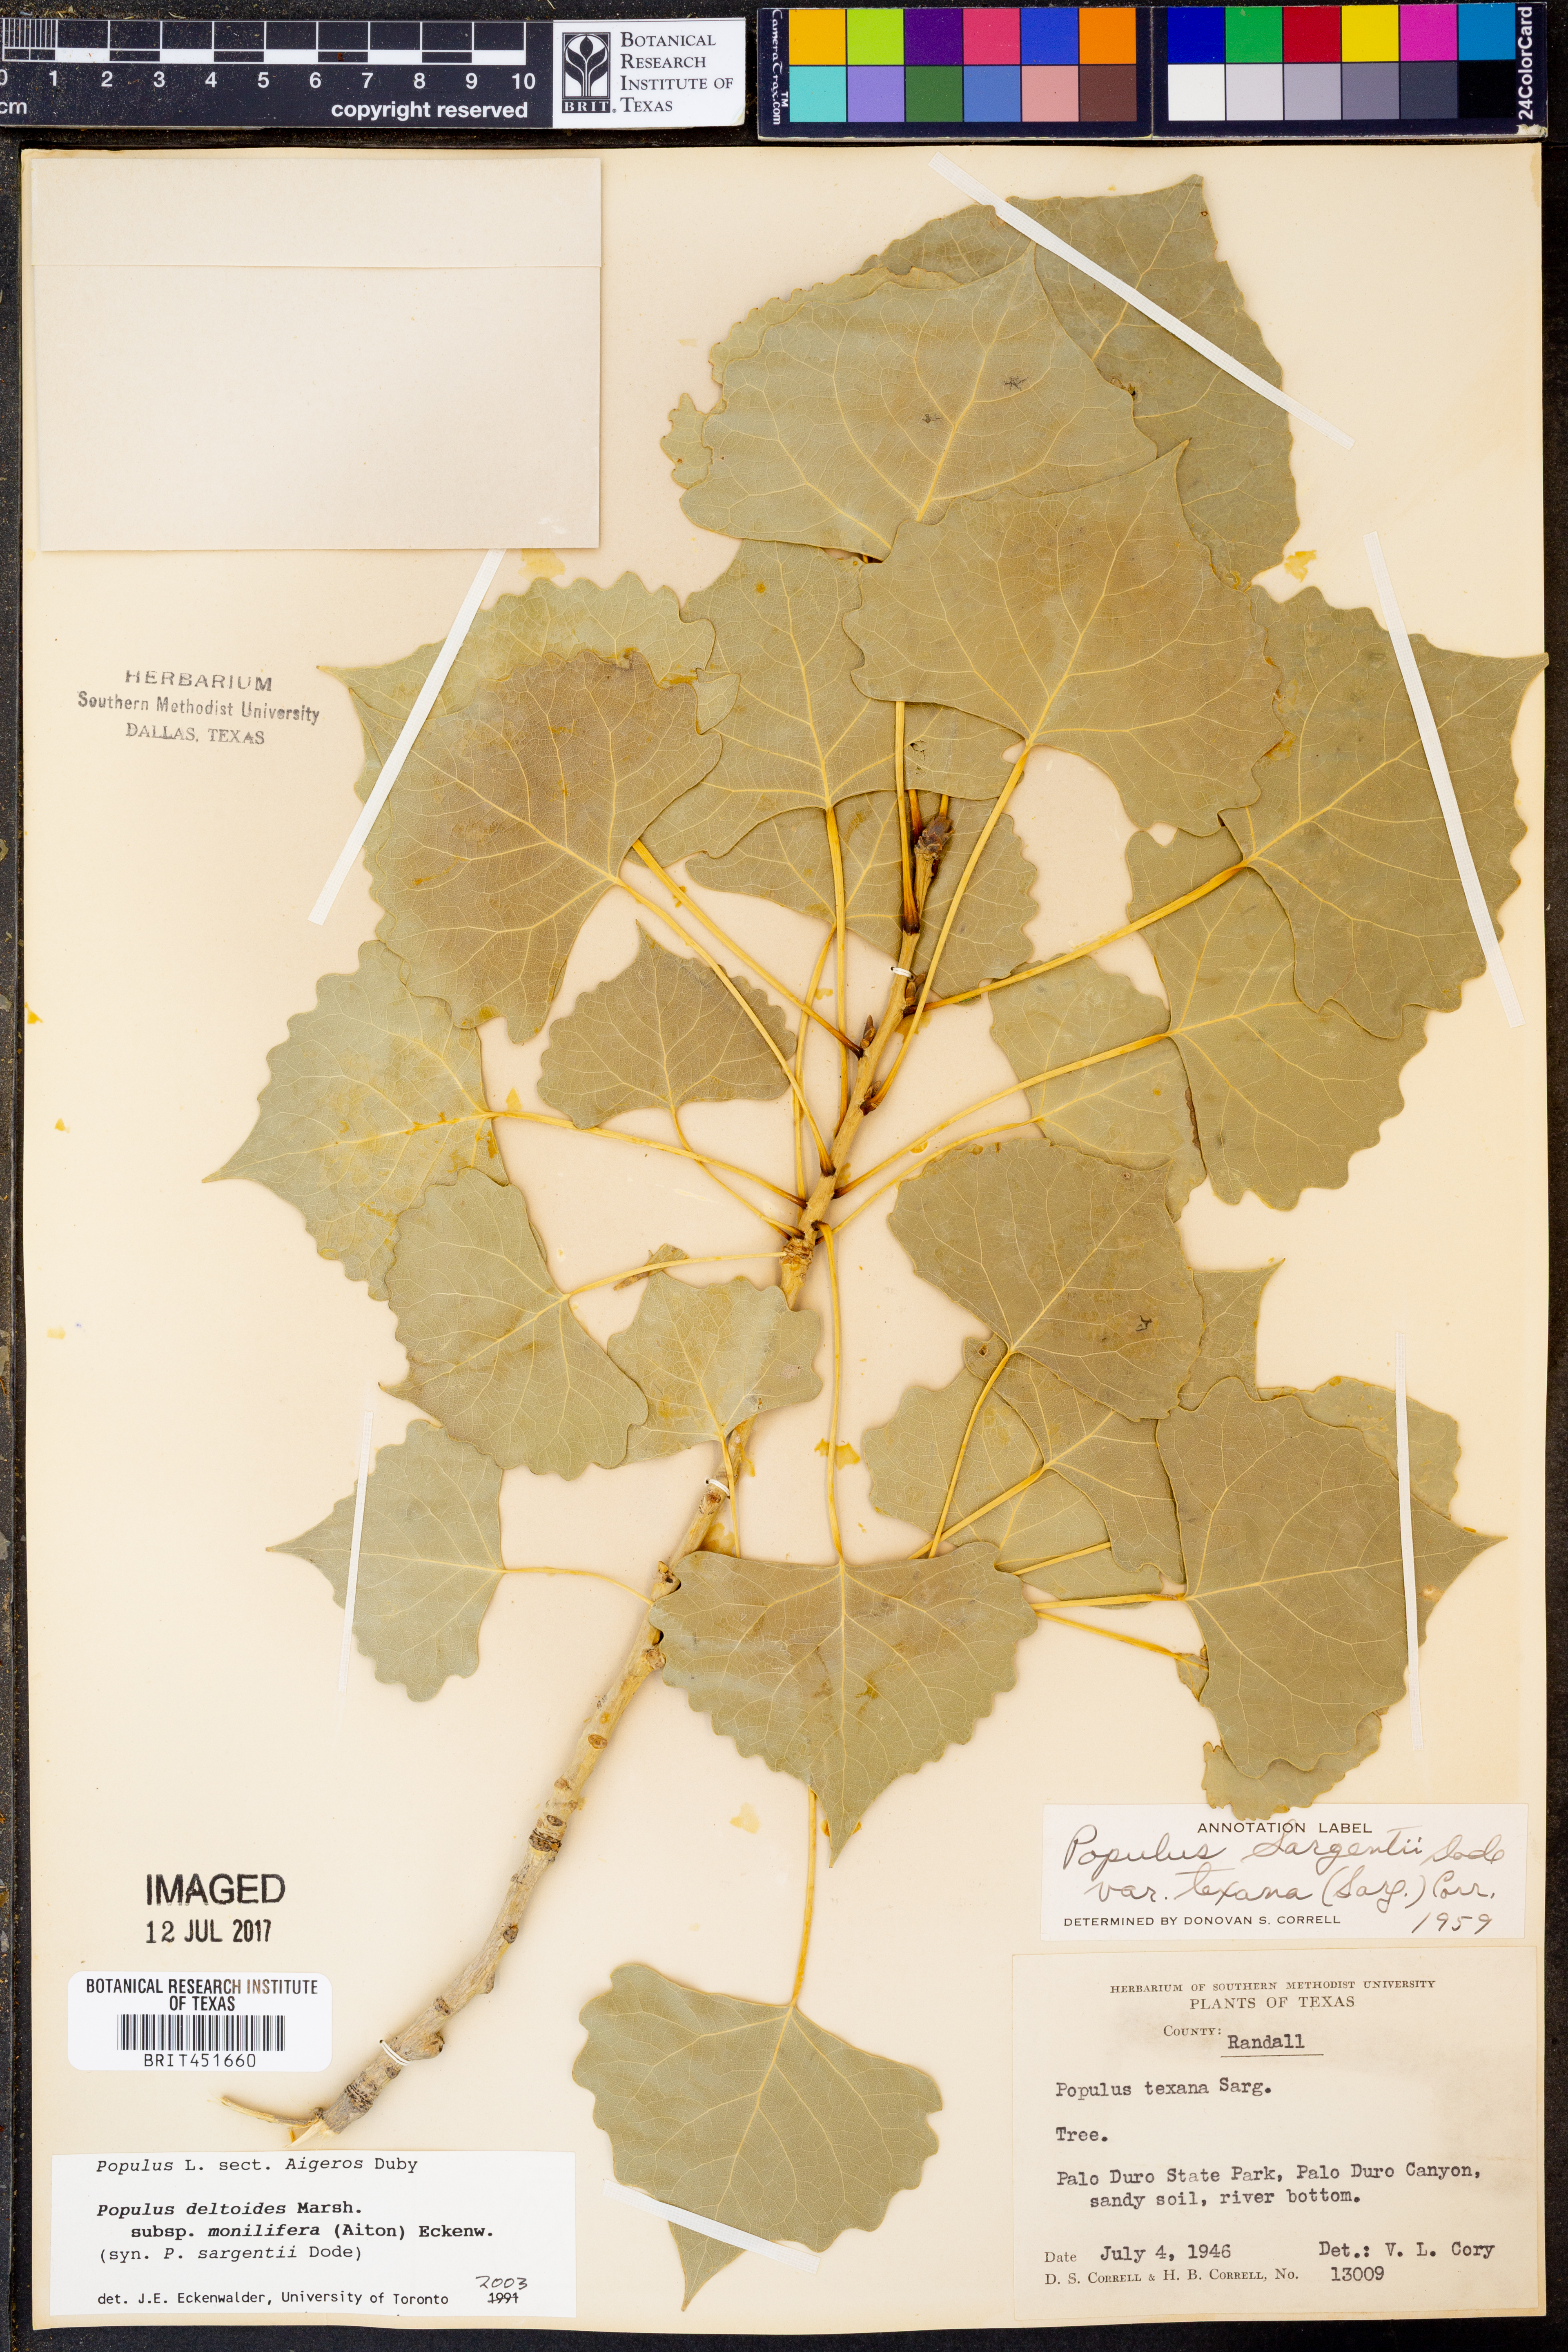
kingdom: Plantae
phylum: Tracheophyta
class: Magnoliopsida
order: Malpighiales
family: Salicaceae
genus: Populus
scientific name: Populus deltoides
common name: Eastern cottonwood
